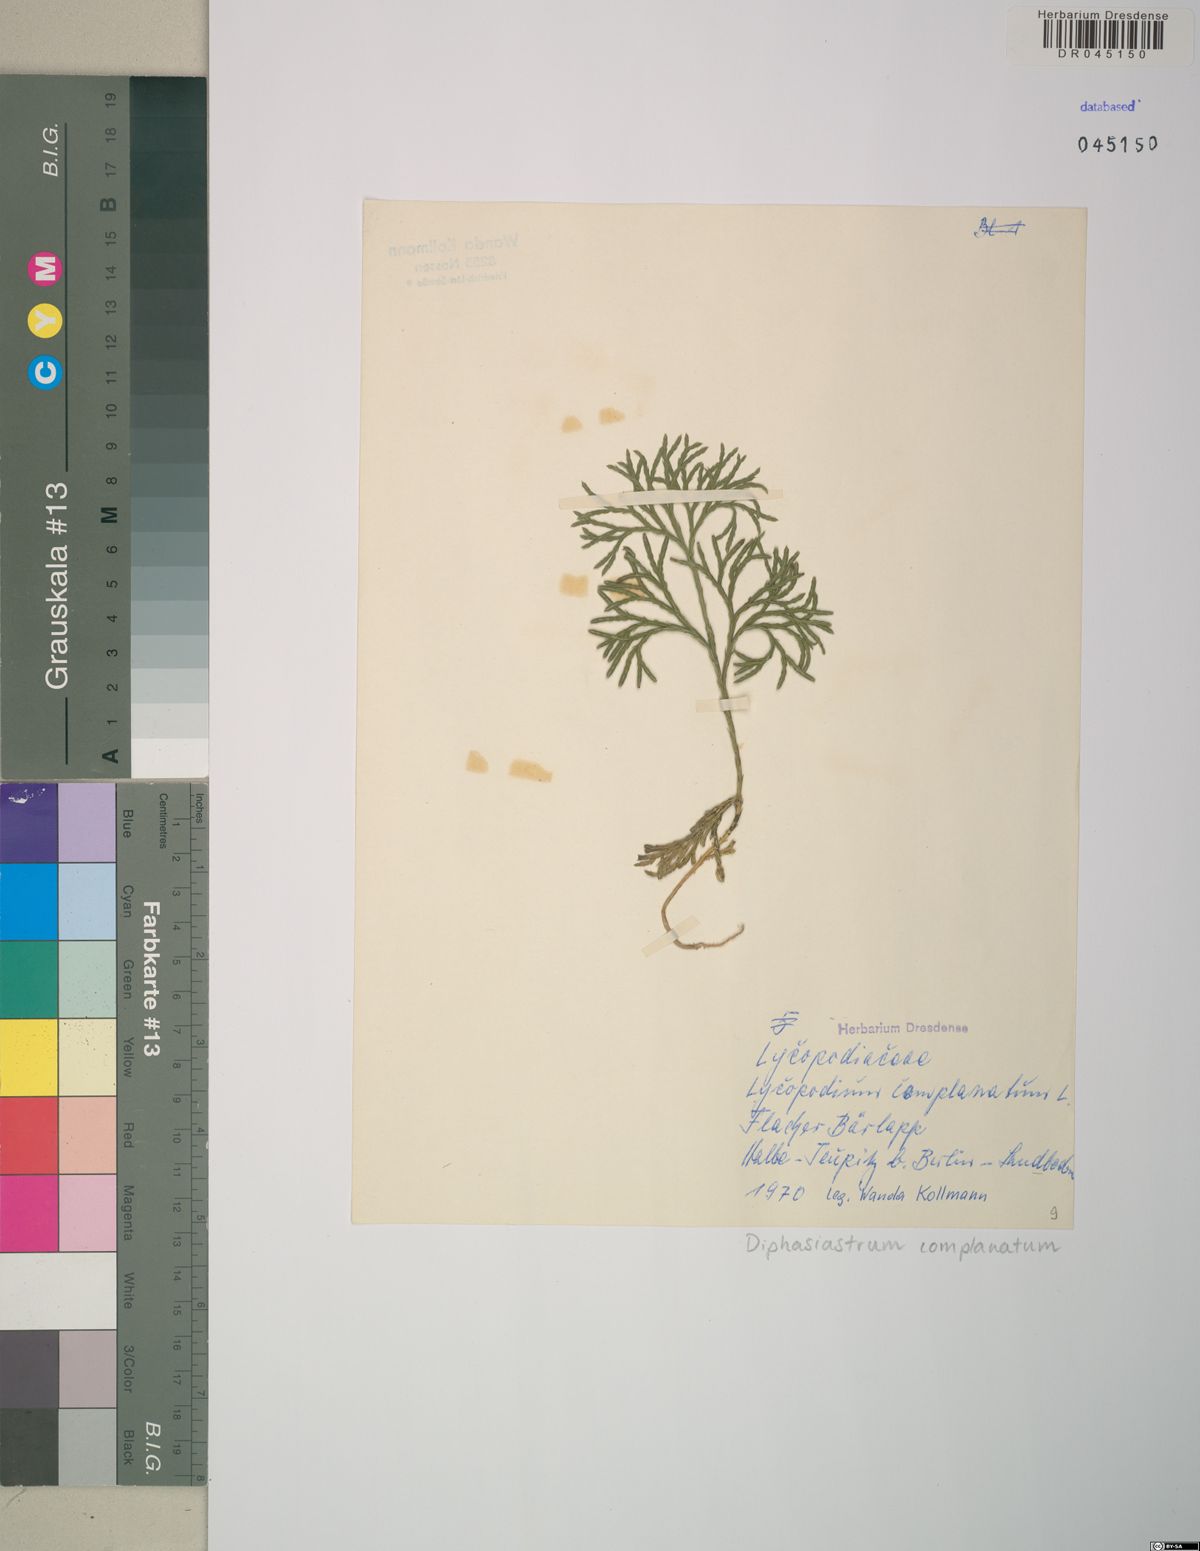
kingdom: Plantae
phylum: Tracheophyta
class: Lycopodiopsida
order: Lycopodiales
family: Lycopodiaceae
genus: Diphasiastrum
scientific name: Diphasiastrum complanatum
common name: Northern running-pine
